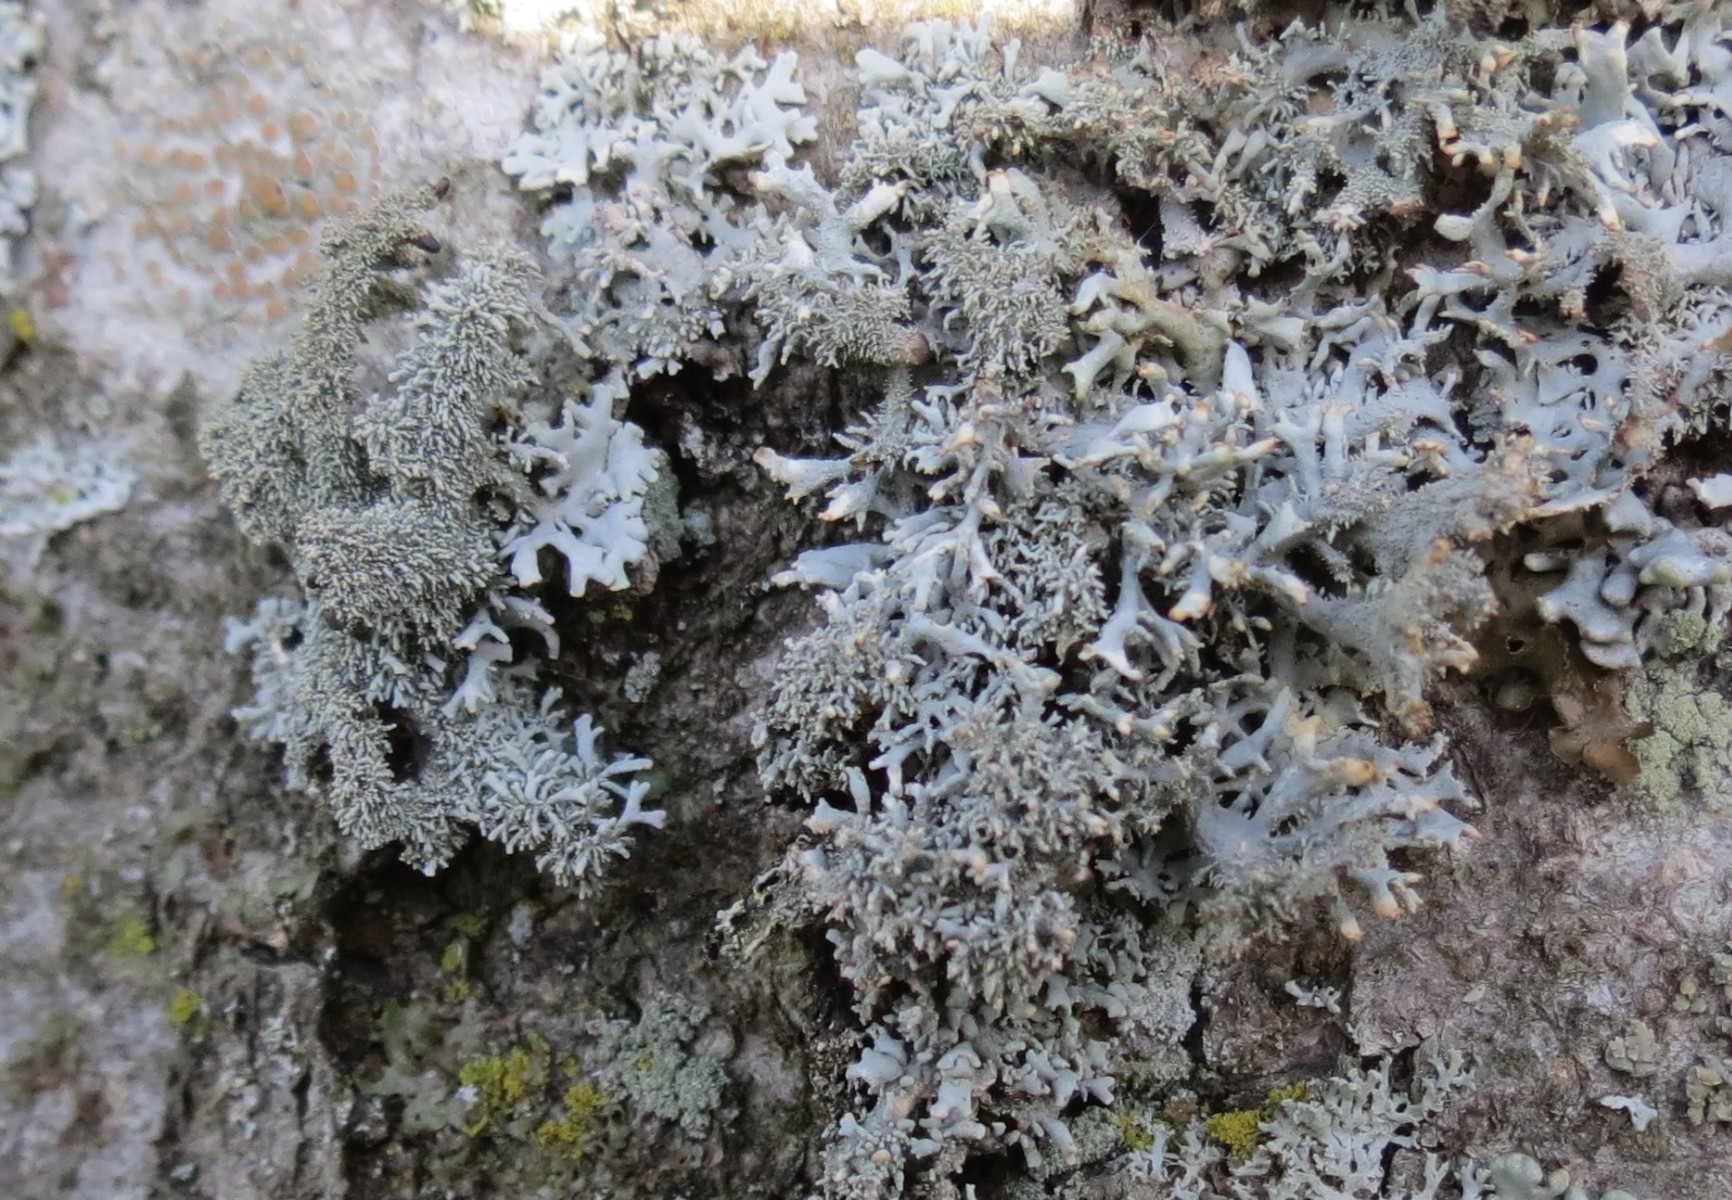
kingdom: Fungi
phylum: Ascomycota
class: Lecanoromycetes
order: Lecanorales
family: Parmeliaceae
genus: Pseudevernia
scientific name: Pseudevernia furfuracea
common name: grå fyrrelav
